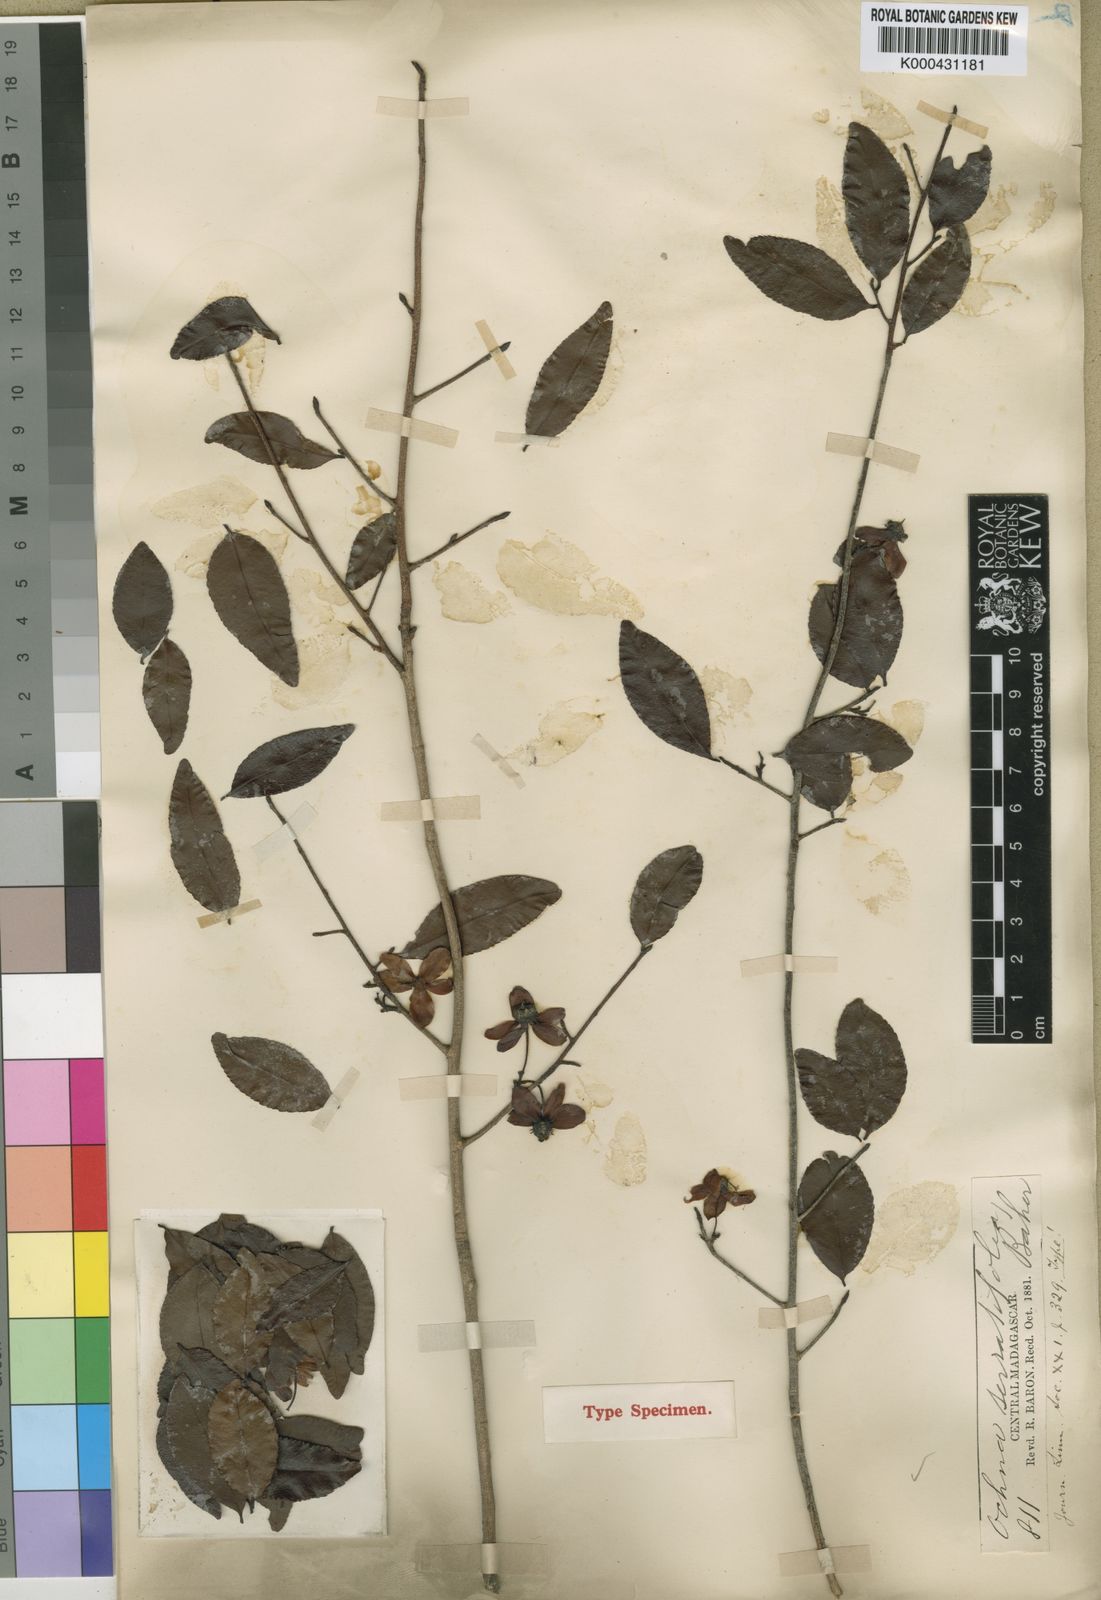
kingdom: Plantae
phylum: Tracheophyta
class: Magnoliopsida
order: Malpighiales
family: Ochnaceae
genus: Ochna
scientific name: Ochna polycarpa
